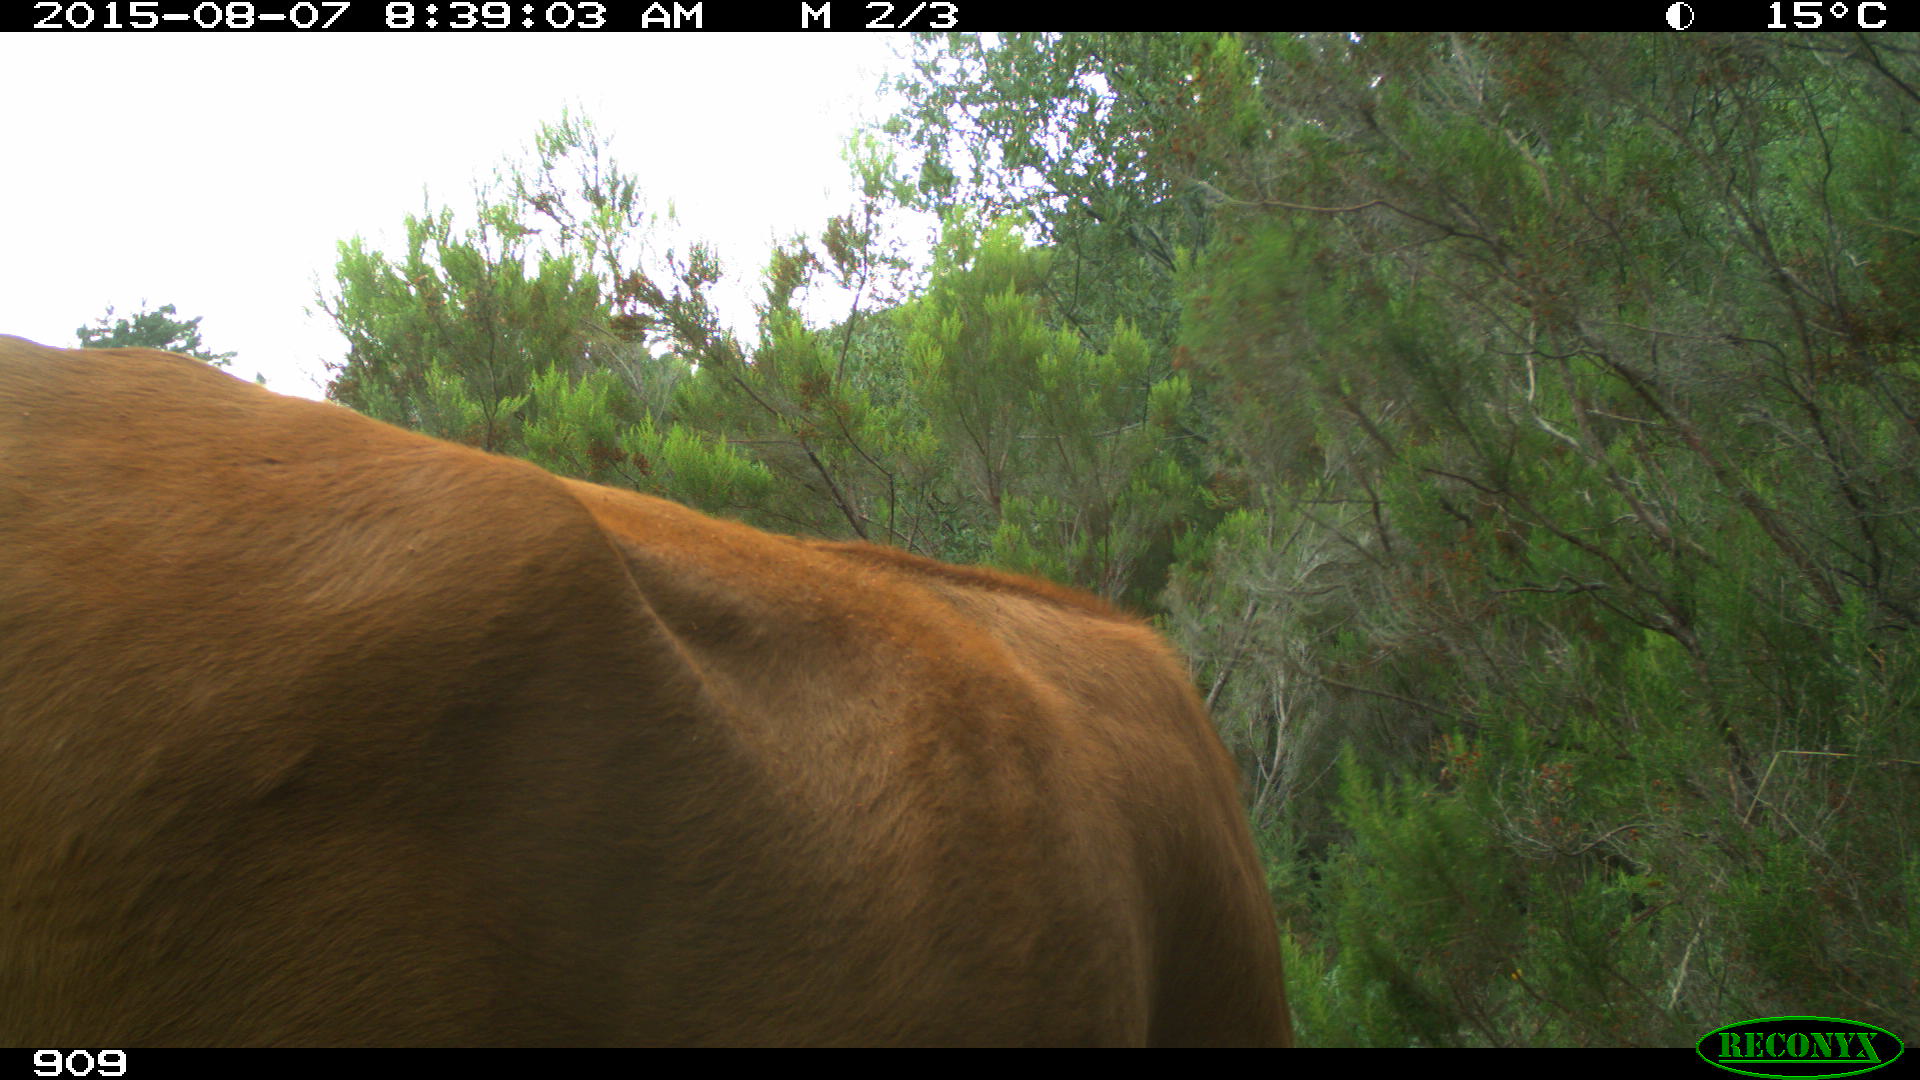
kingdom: Animalia
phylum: Chordata
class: Mammalia
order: Artiodactyla
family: Bovidae
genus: Bos
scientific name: Bos taurus
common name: Domesticated cattle
